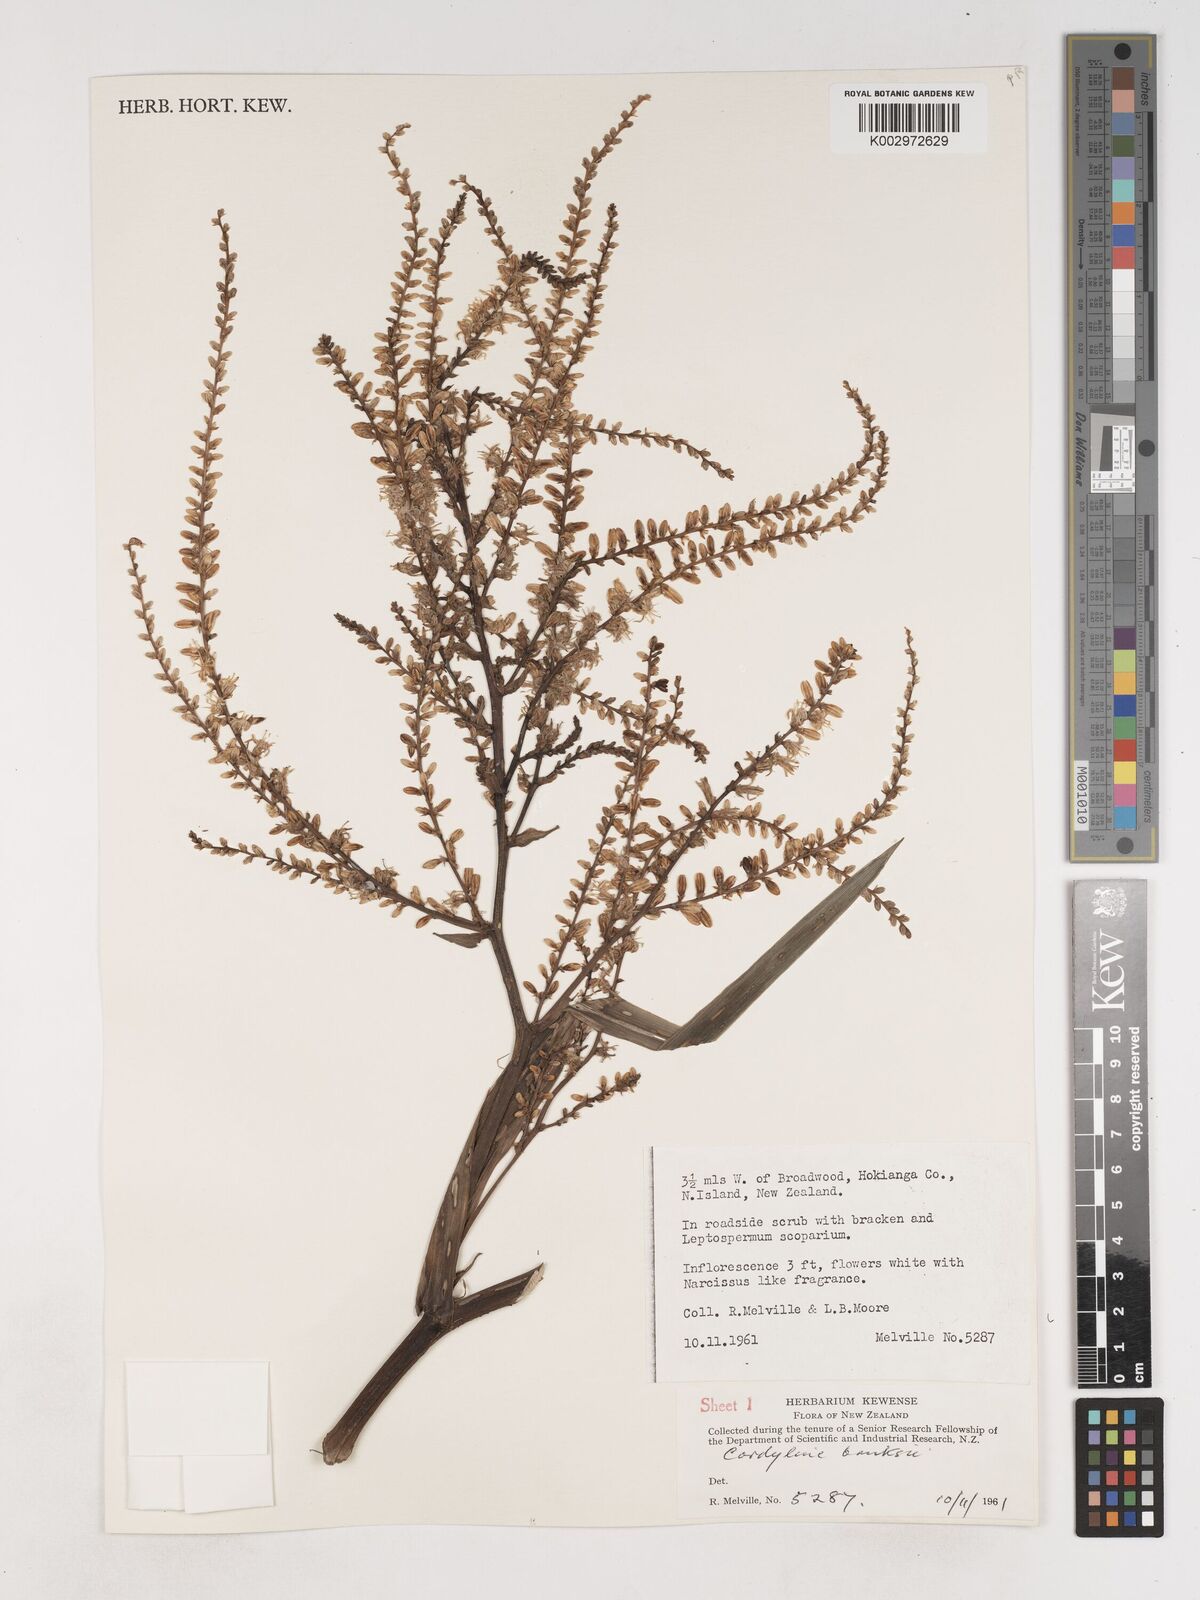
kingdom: Plantae
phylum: Tracheophyta
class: Liliopsida
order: Asparagales
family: Asparagaceae
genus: Cordyline
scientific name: Cordyline banksii
